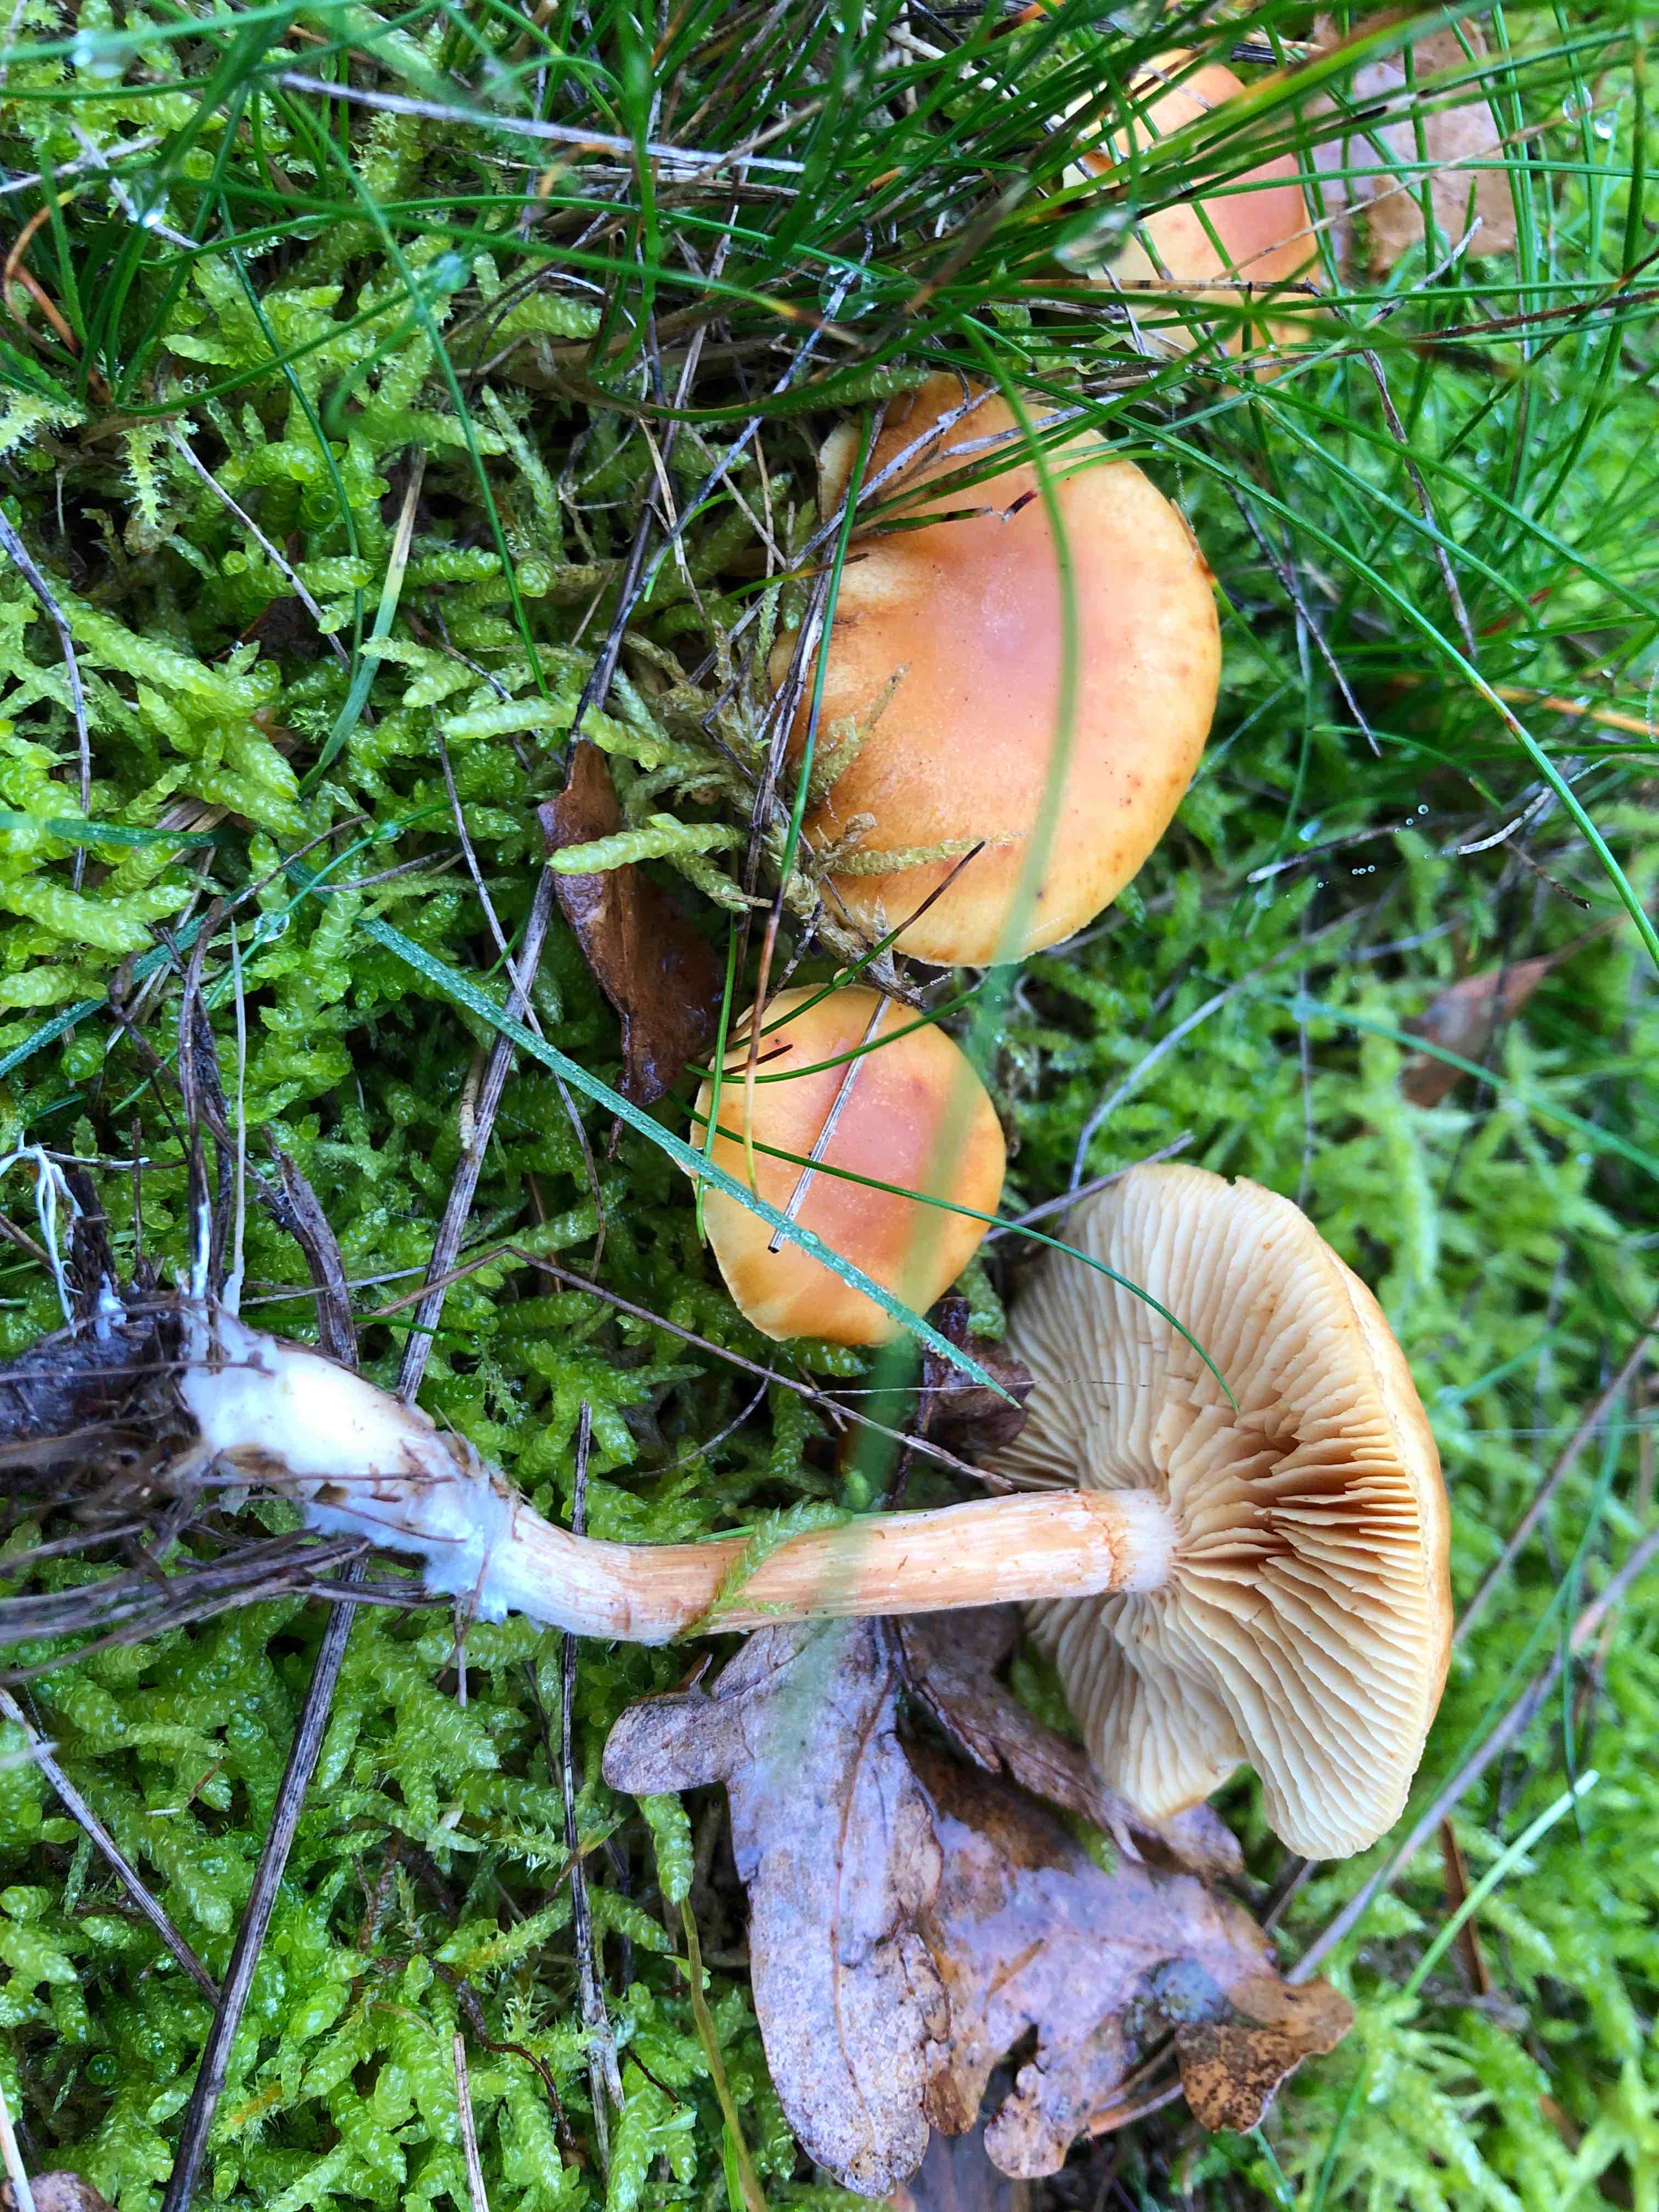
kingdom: Fungi
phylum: Basidiomycota
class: Agaricomycetes
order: Agaricales
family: Hymenogastraceae
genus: Gymnopilus
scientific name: Gymnopilus penetrans
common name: plettet flammehat
